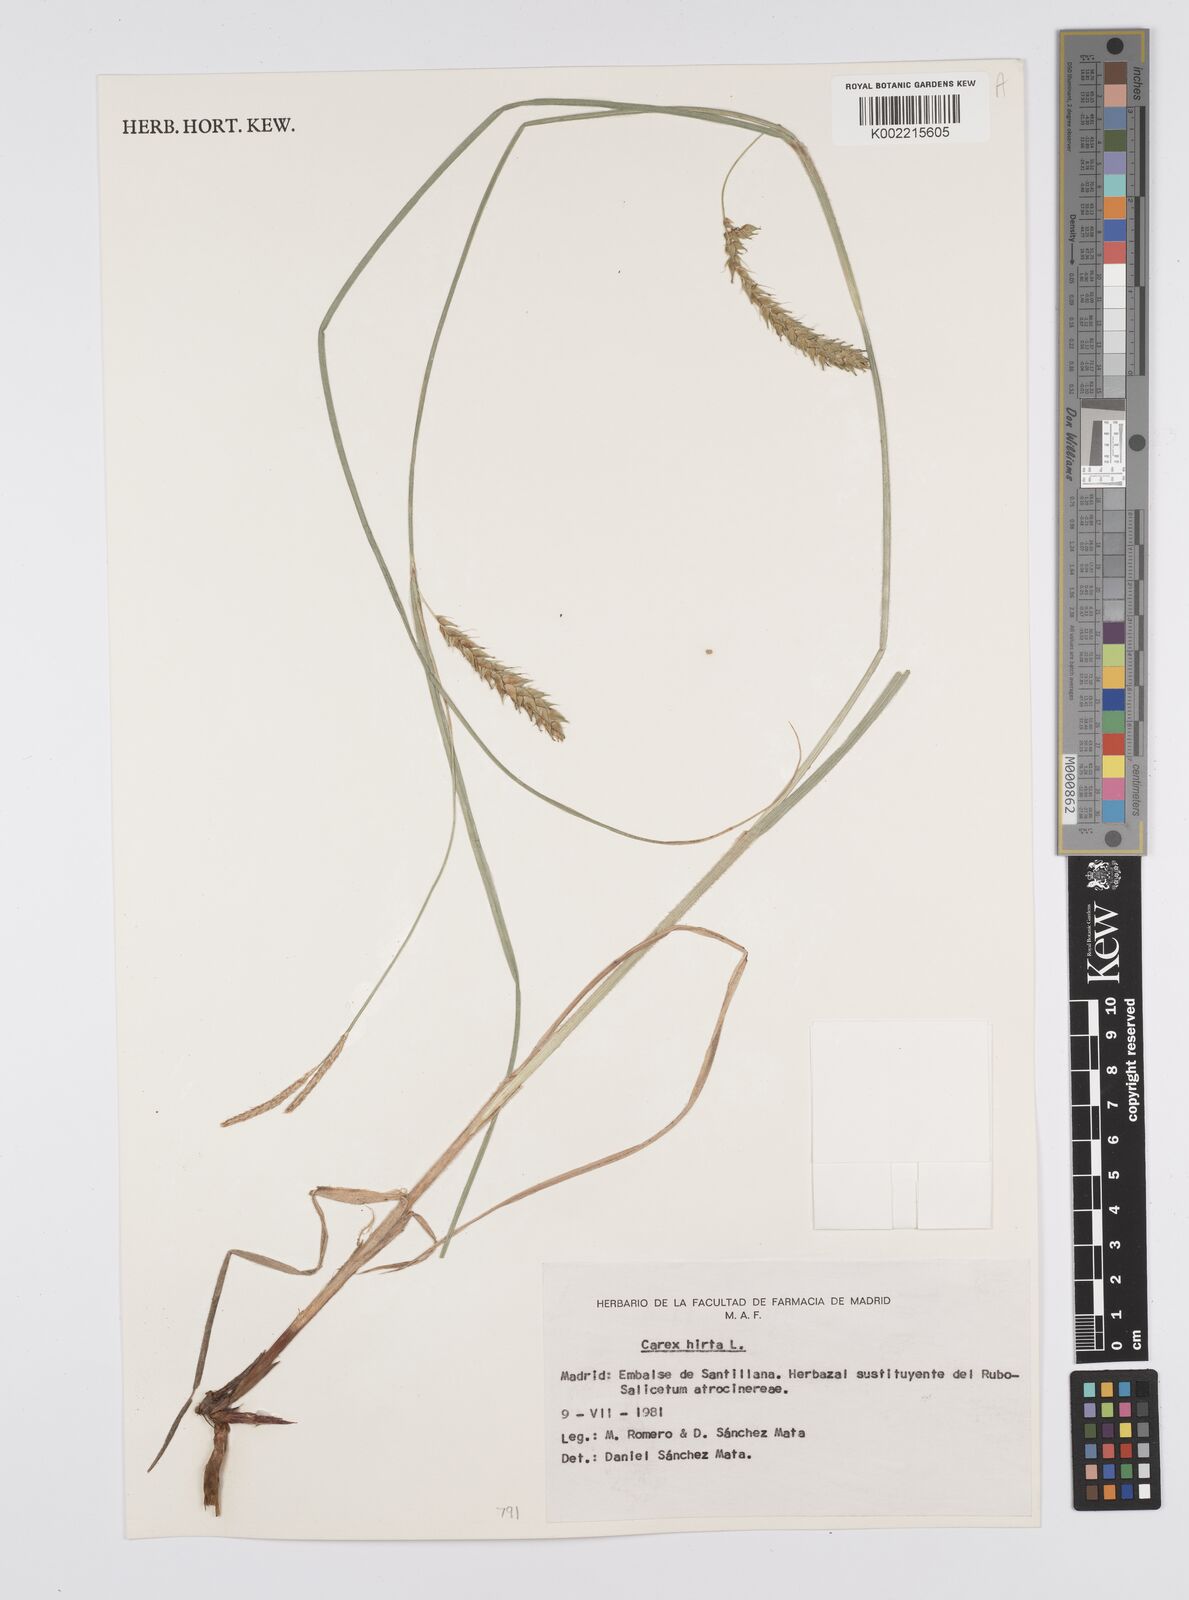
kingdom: Plantae
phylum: Tracheophyta
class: Liliopsida
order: Poales
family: Cyperaceae
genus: Carex
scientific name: Carex hirta
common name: Hairy sedge
